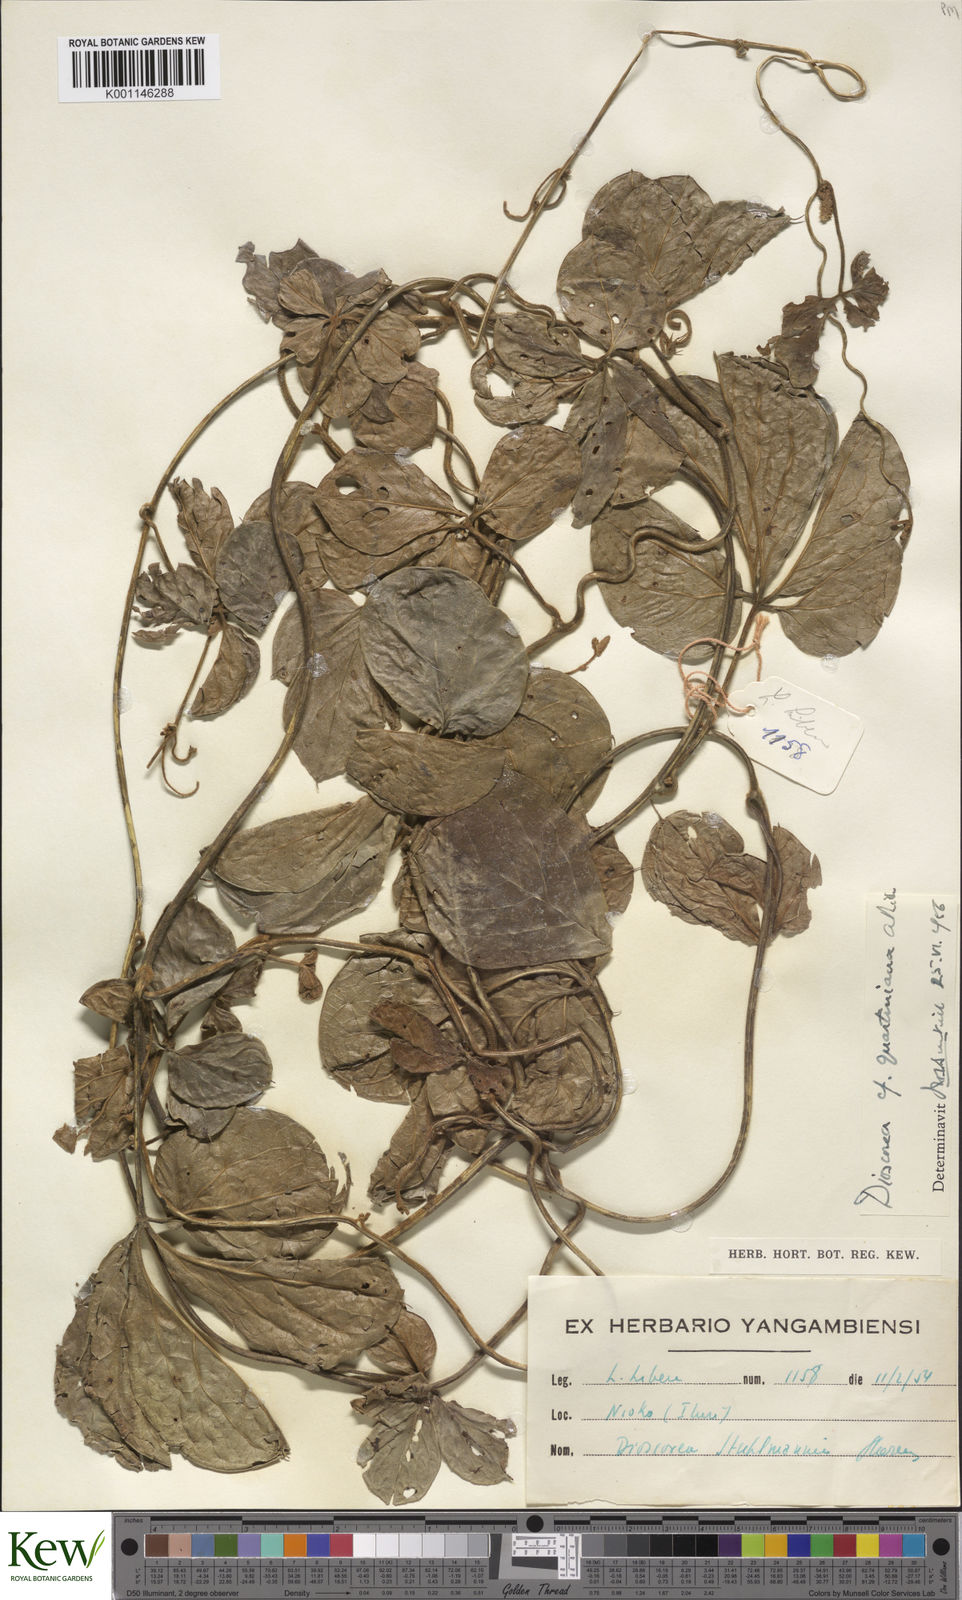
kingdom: Plantae
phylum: Tracheophyta
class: Liliopsida
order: Dioscoreales
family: Dioscoreaceae
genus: Dioscorea
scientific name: Dioscorea quartiniana
